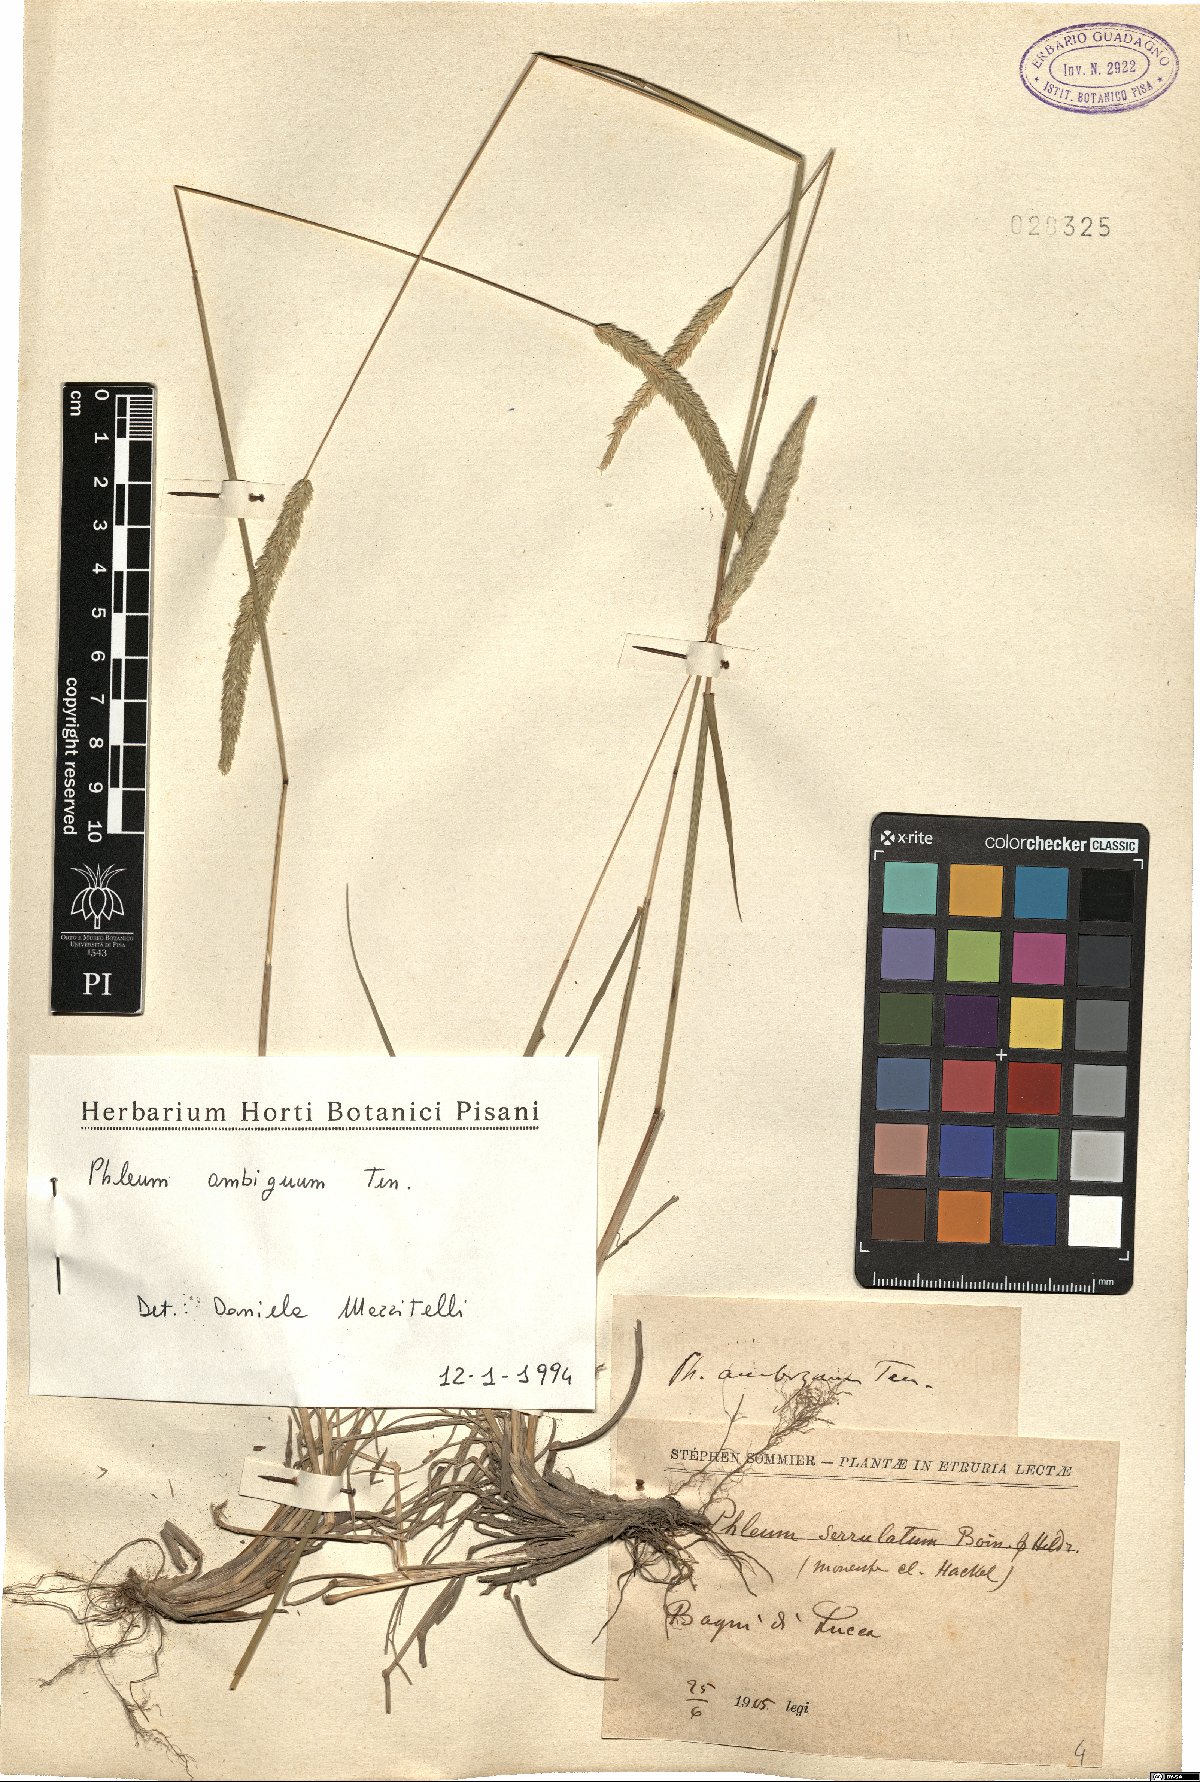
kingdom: Plantae
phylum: Tracheophyta
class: Liliopsida
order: Poales
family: Poaceae
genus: Phleum
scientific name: Phleum hirsutum
